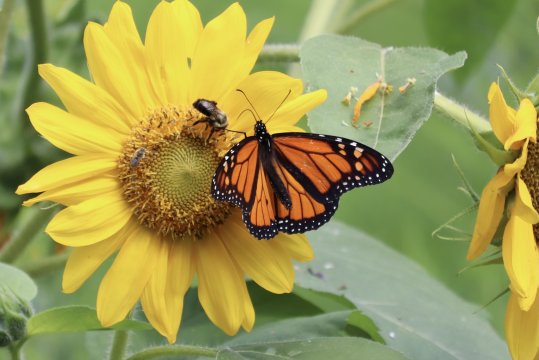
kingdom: Animalia
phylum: Arthropoda
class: Insecta
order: Lepidoptera
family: Nymphalidae
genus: Danaus
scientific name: Danaus plexippus
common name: Monarch
